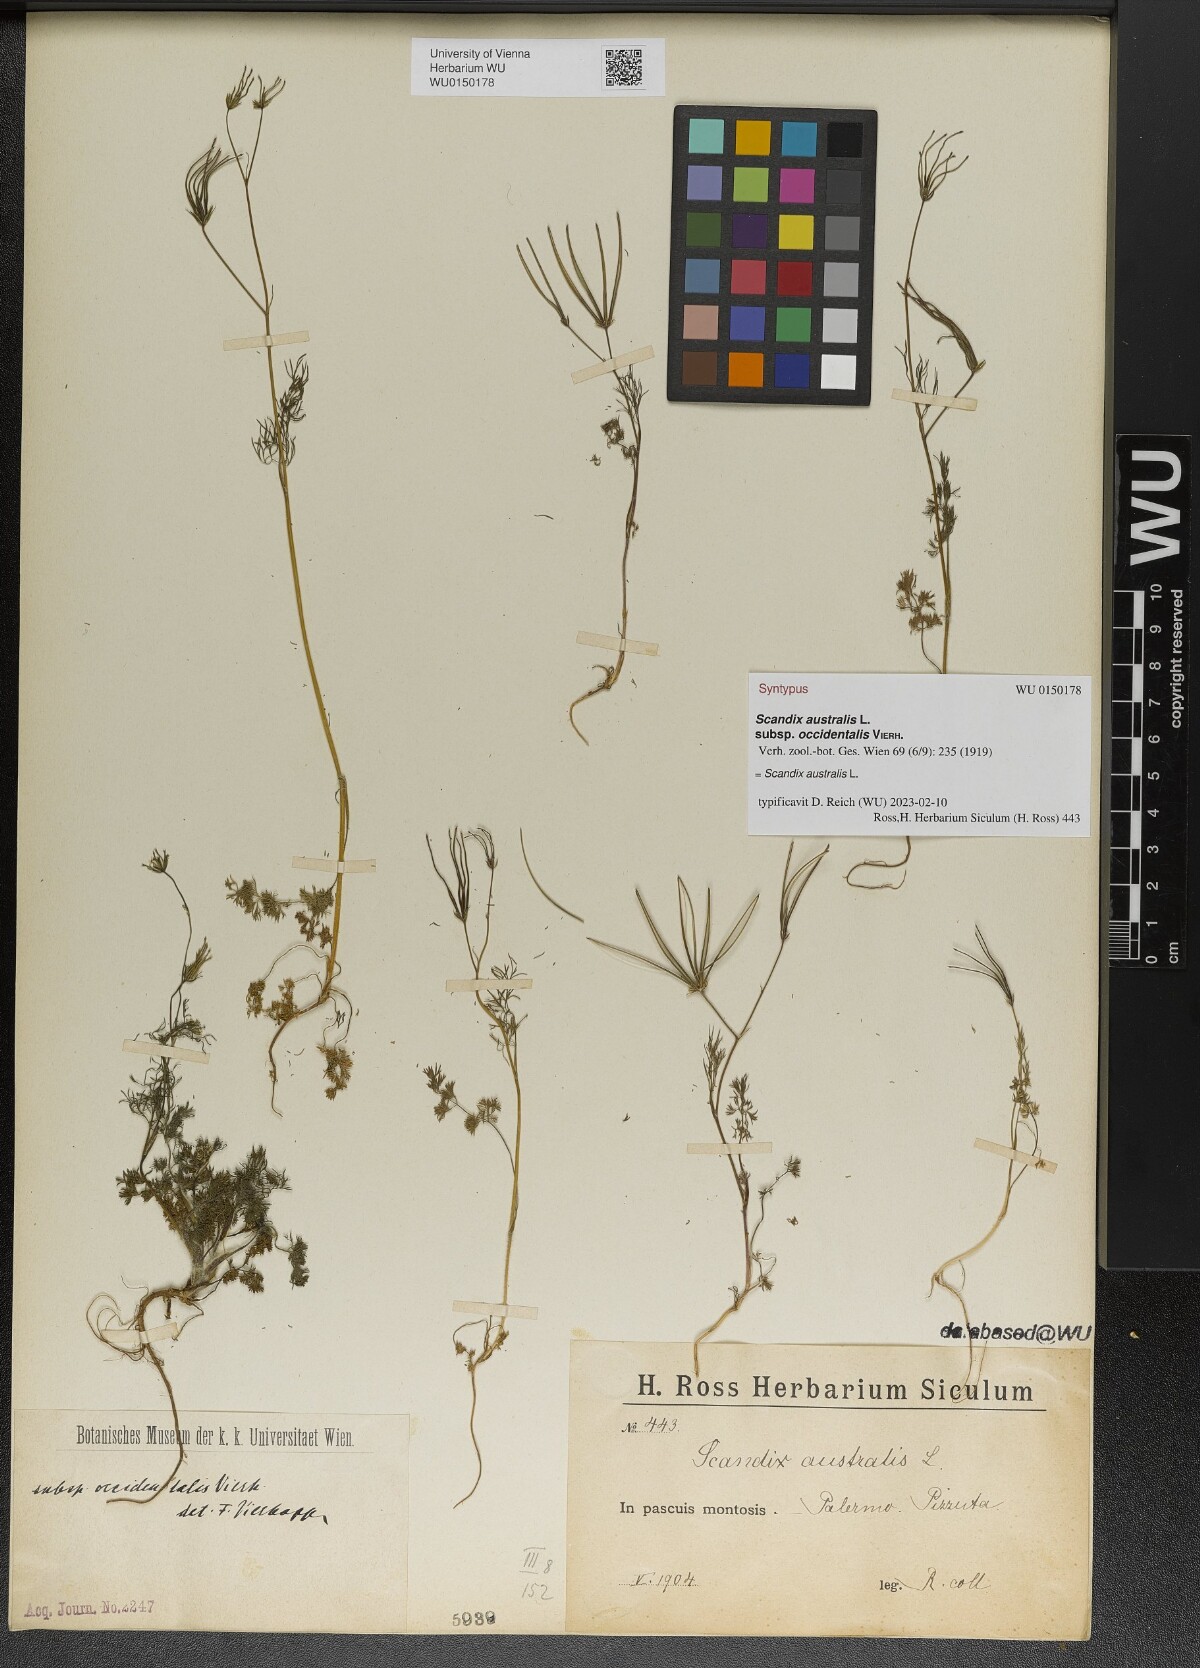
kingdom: Plantae
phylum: Tracheophyta
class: Magnoliopsida
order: Apiales
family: Apiaceae
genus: Scandix
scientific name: Scandix australis
